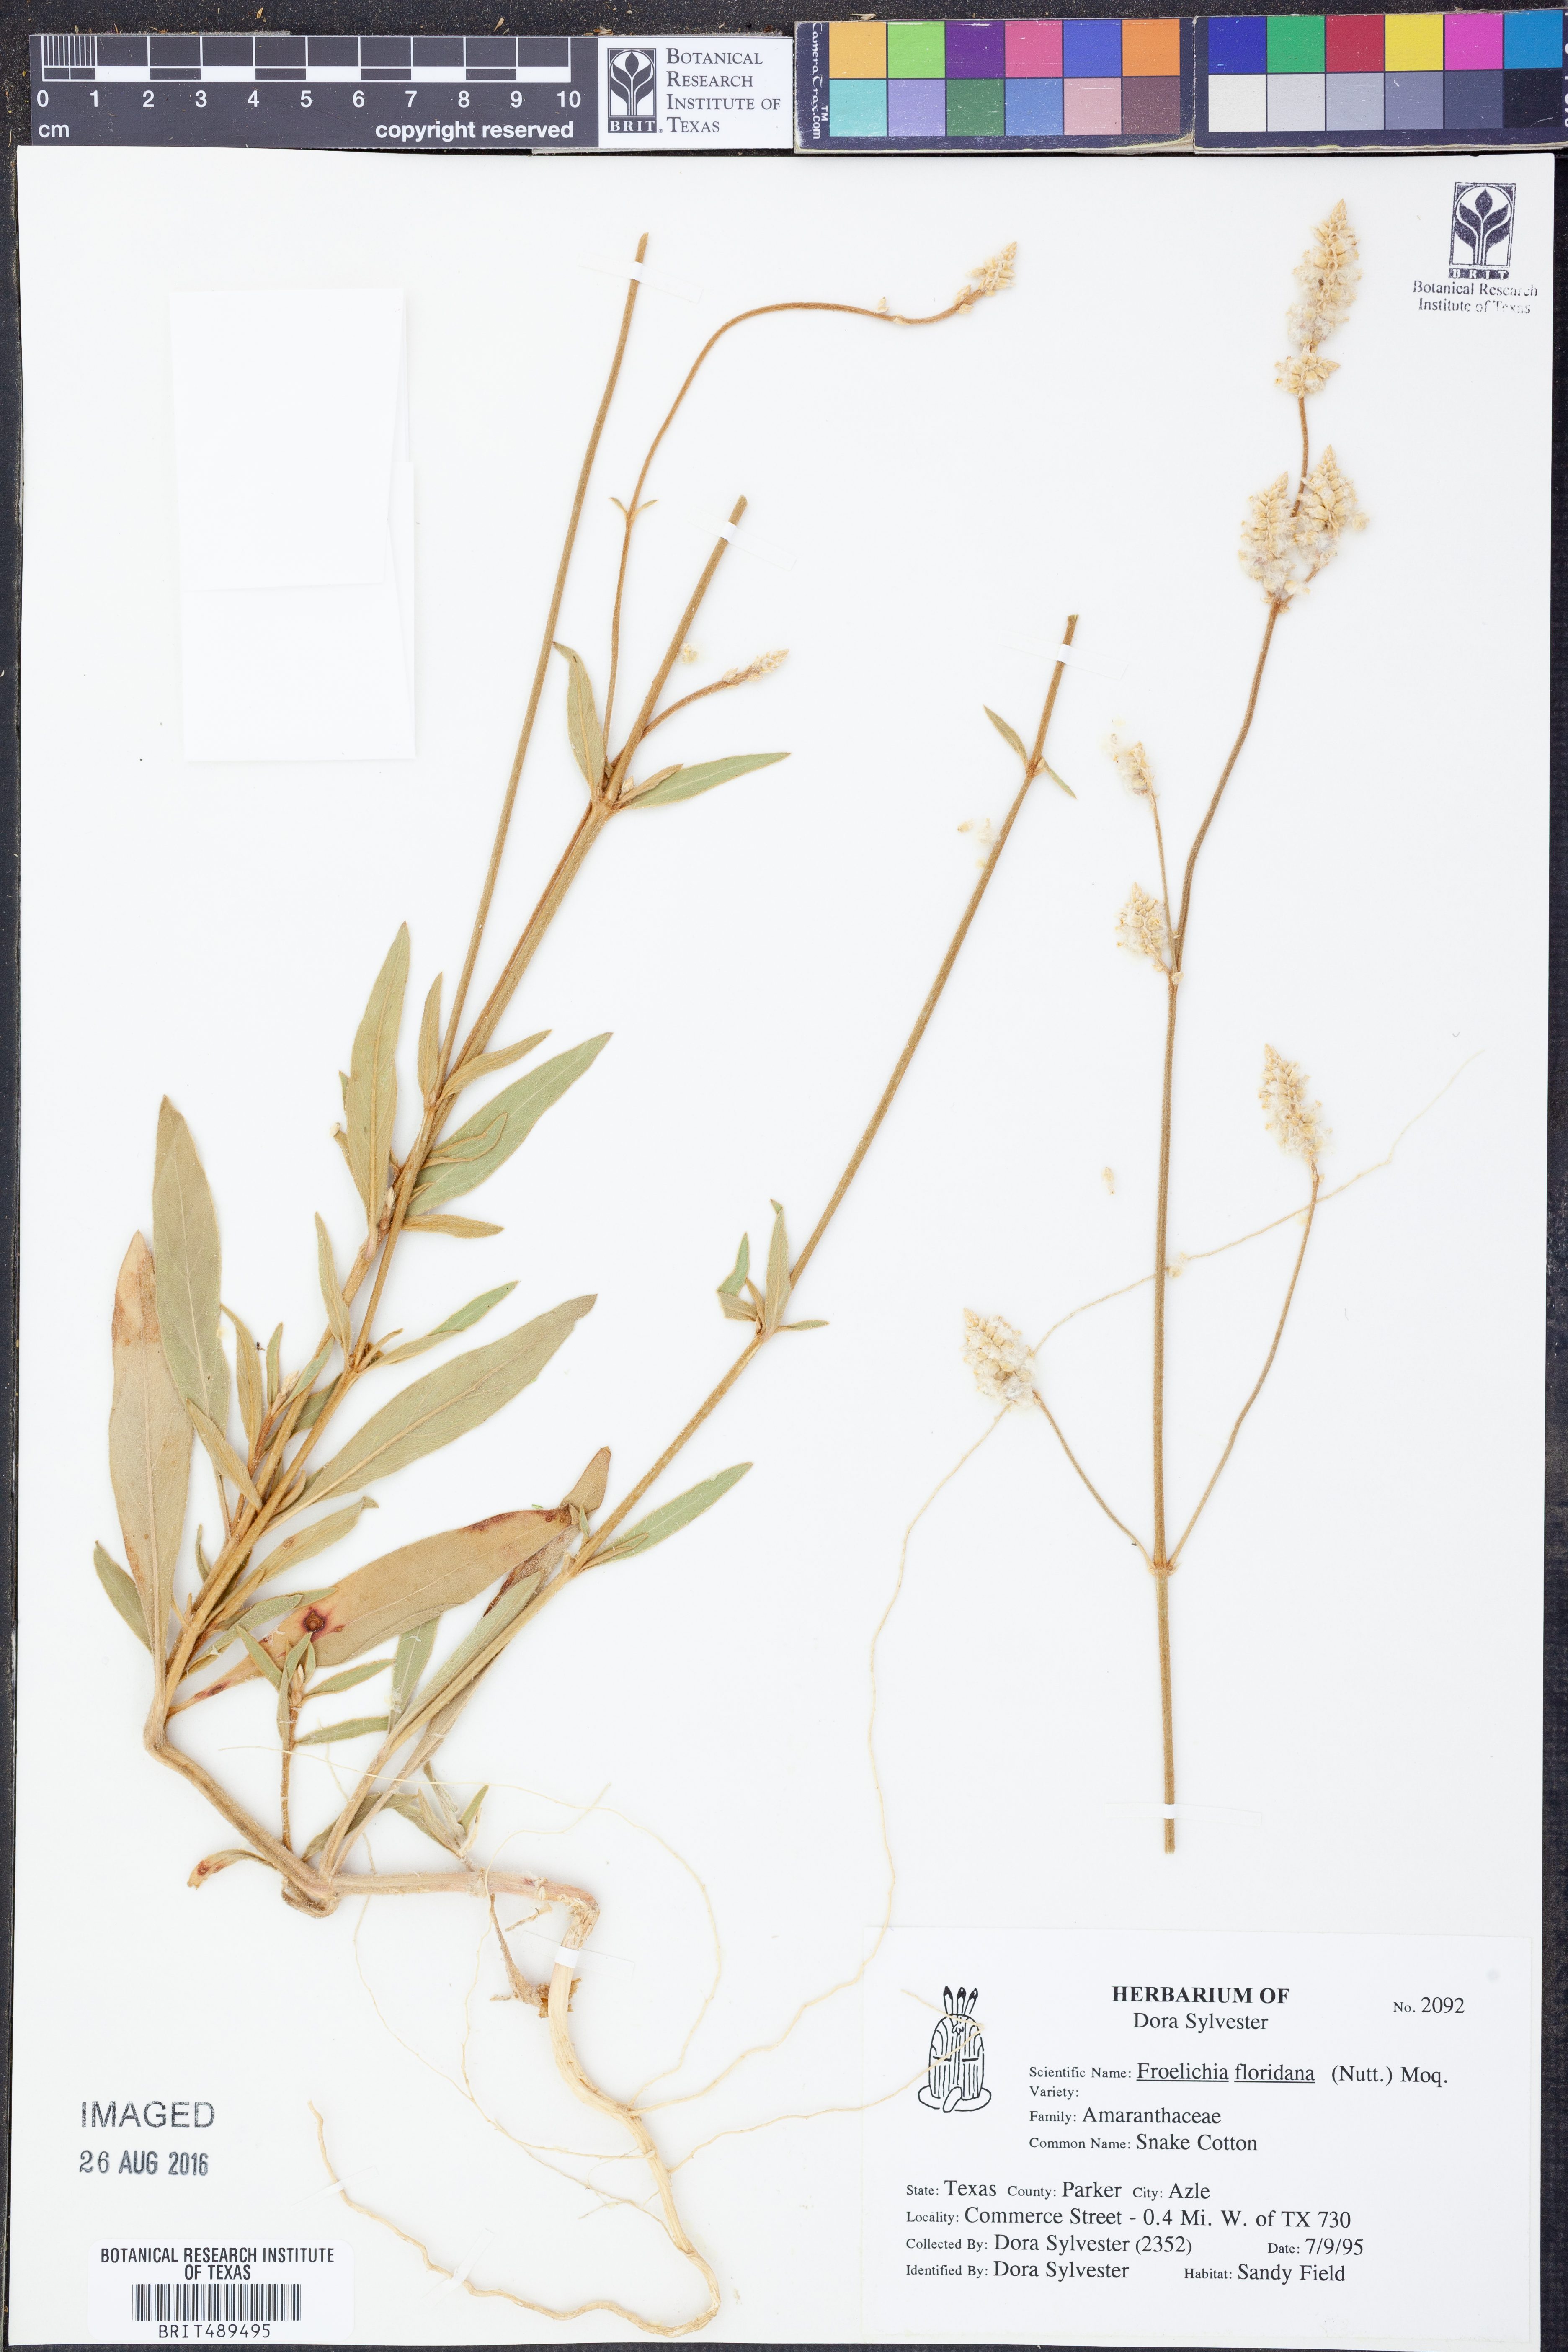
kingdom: Plantae
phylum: Tracheophyta
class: Magnoliopsida
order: Caryophyllales
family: Amaranthaceae
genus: Froelichia
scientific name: Froelichia floridana
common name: Florida snake-cotton
